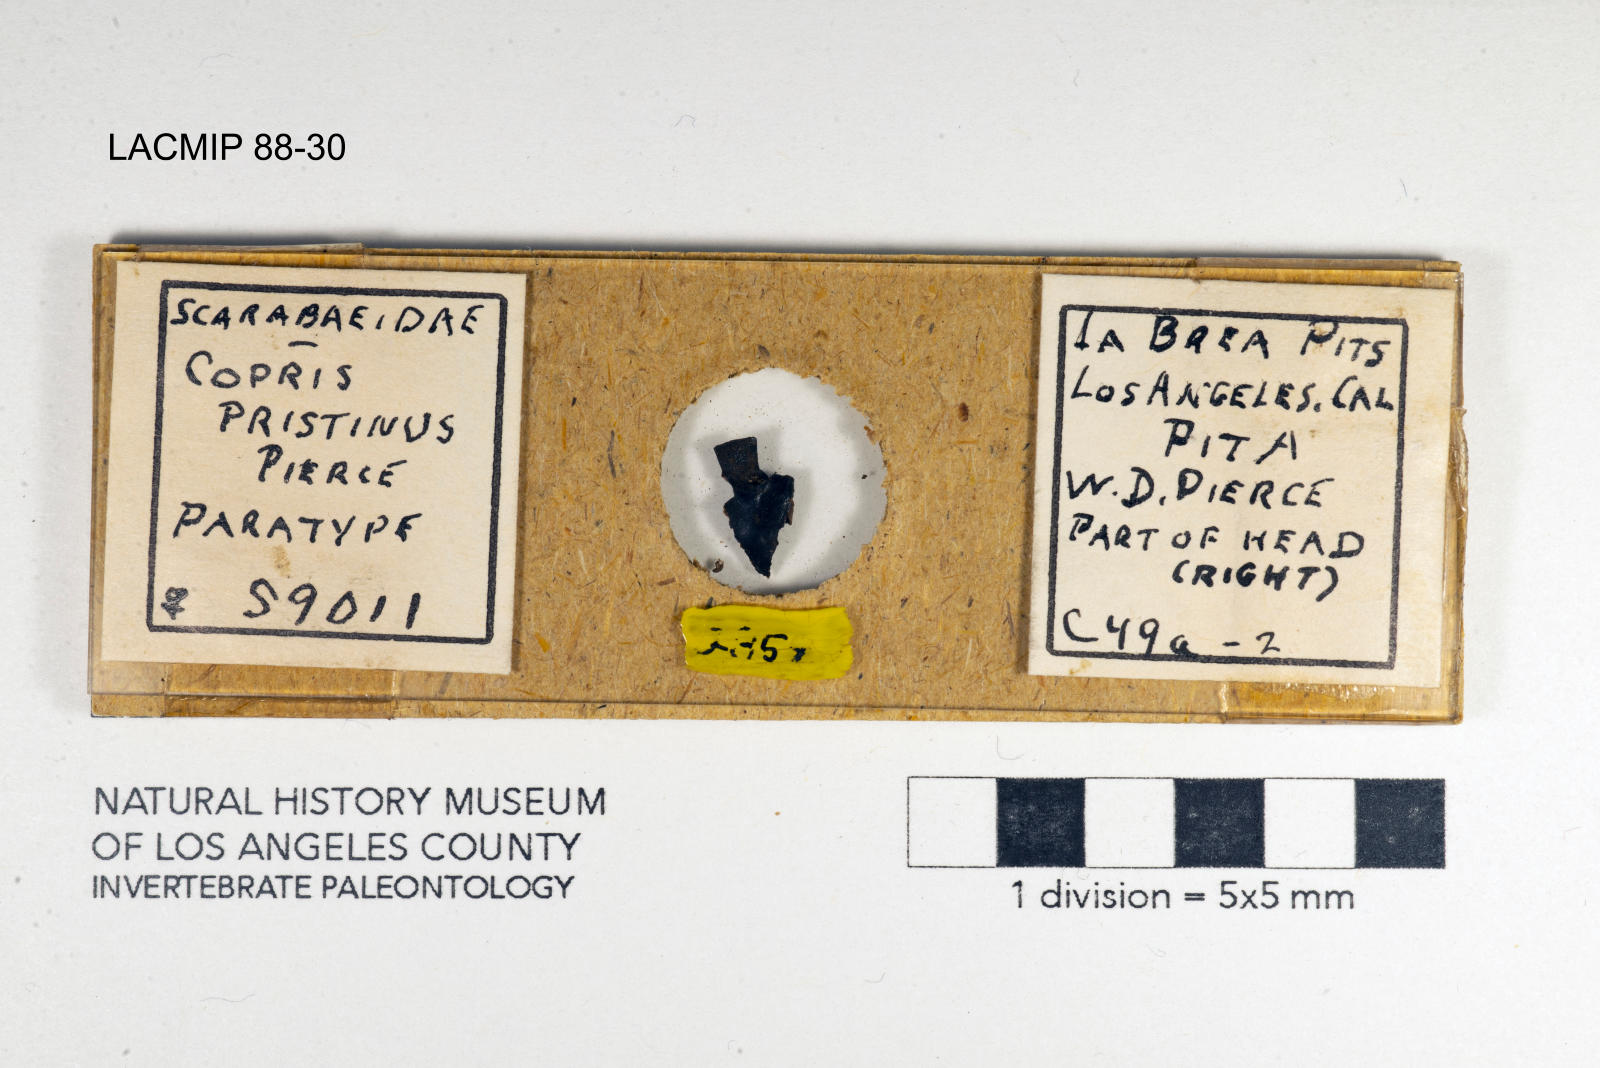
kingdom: Animalia
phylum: Arthropoda
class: Insecta
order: Coleoptera
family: Scarabaeidae
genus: Copris
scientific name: Copris pristinus
